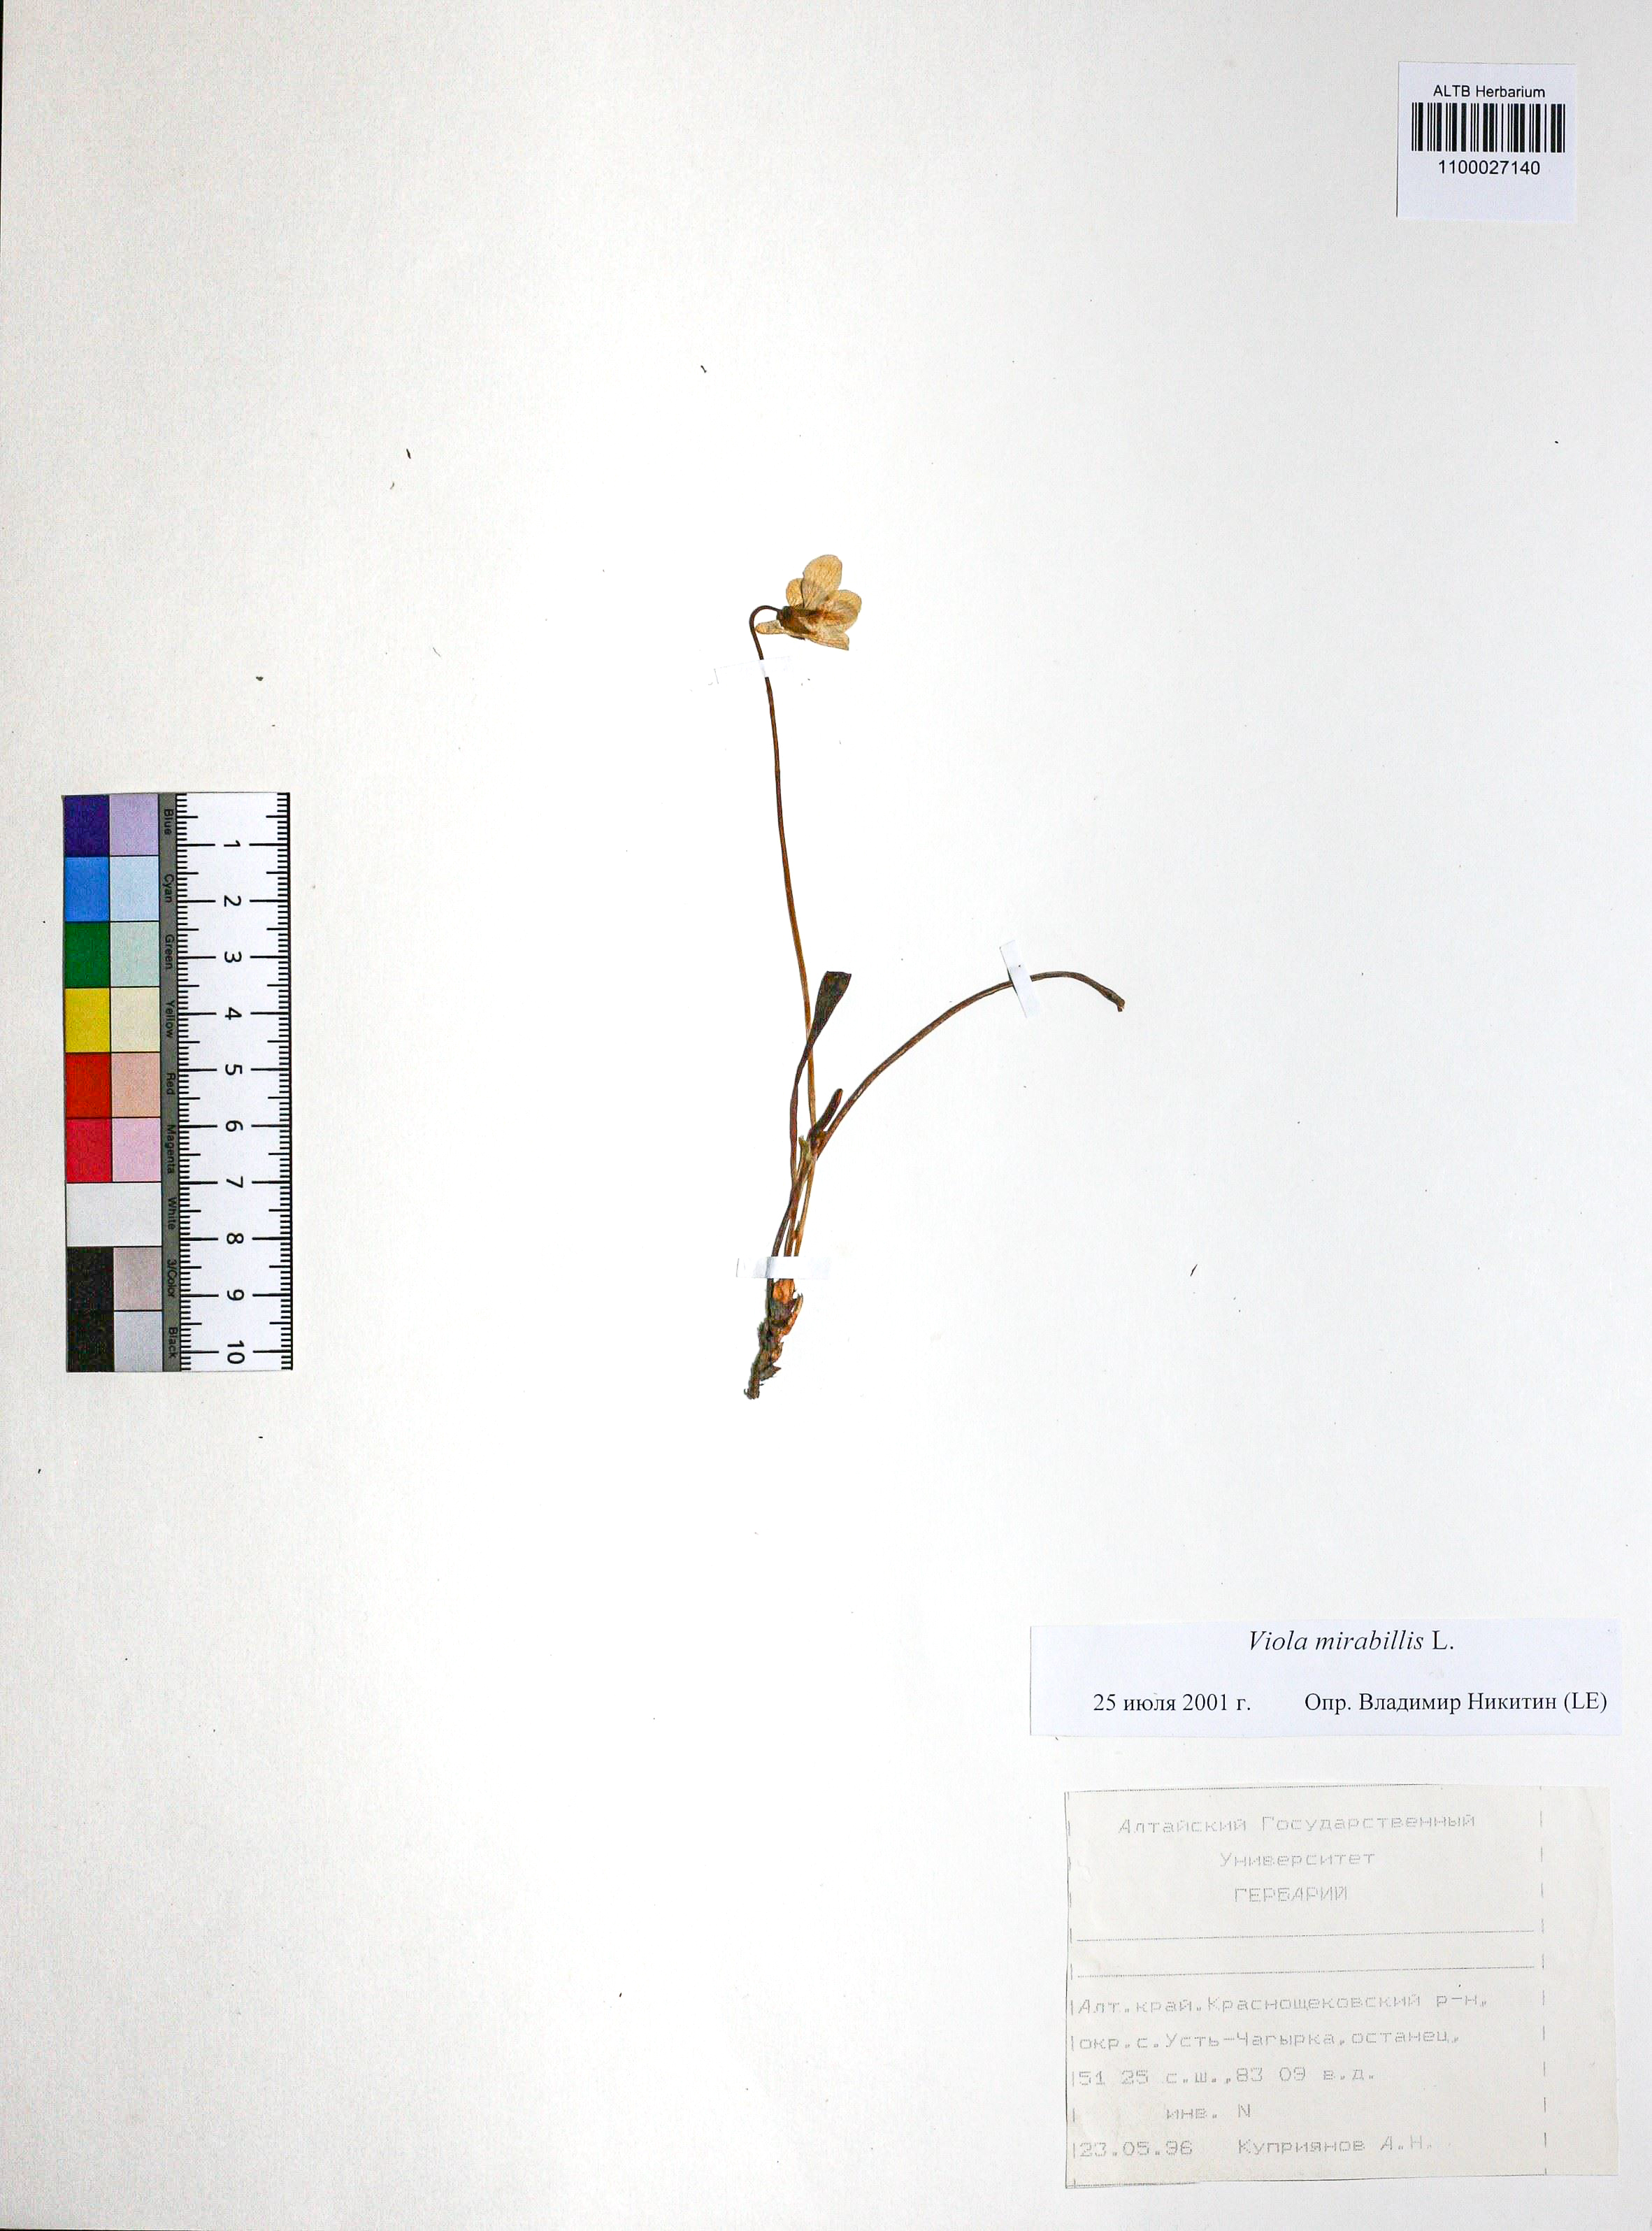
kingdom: Plantae
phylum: Tracheophyta
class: Magnoliopsida
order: Malpighiales
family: Violaceae
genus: Viola
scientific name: Viola mirabilis
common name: Wonder violet
